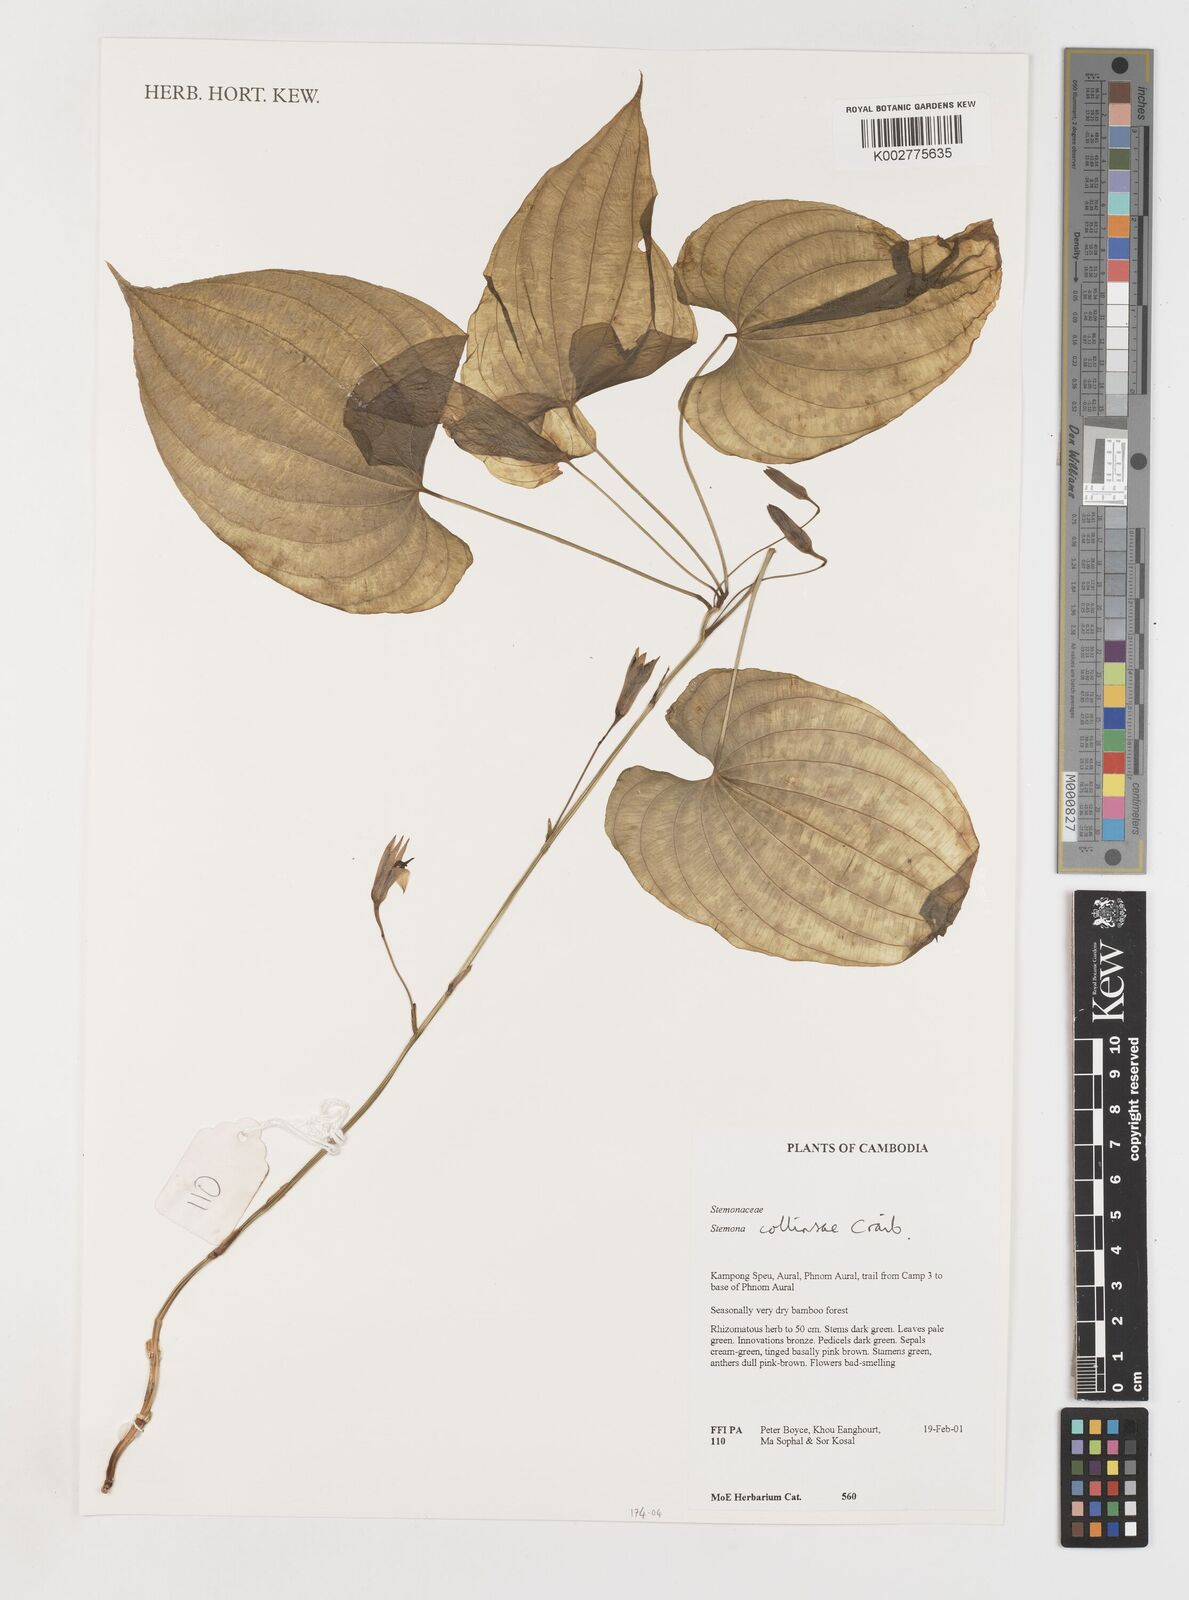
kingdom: Plantae
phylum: Tracheophyta
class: Liliopsida
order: Pandanales
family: Stemonaceae
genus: Stemona
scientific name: Stemona collinsiae
